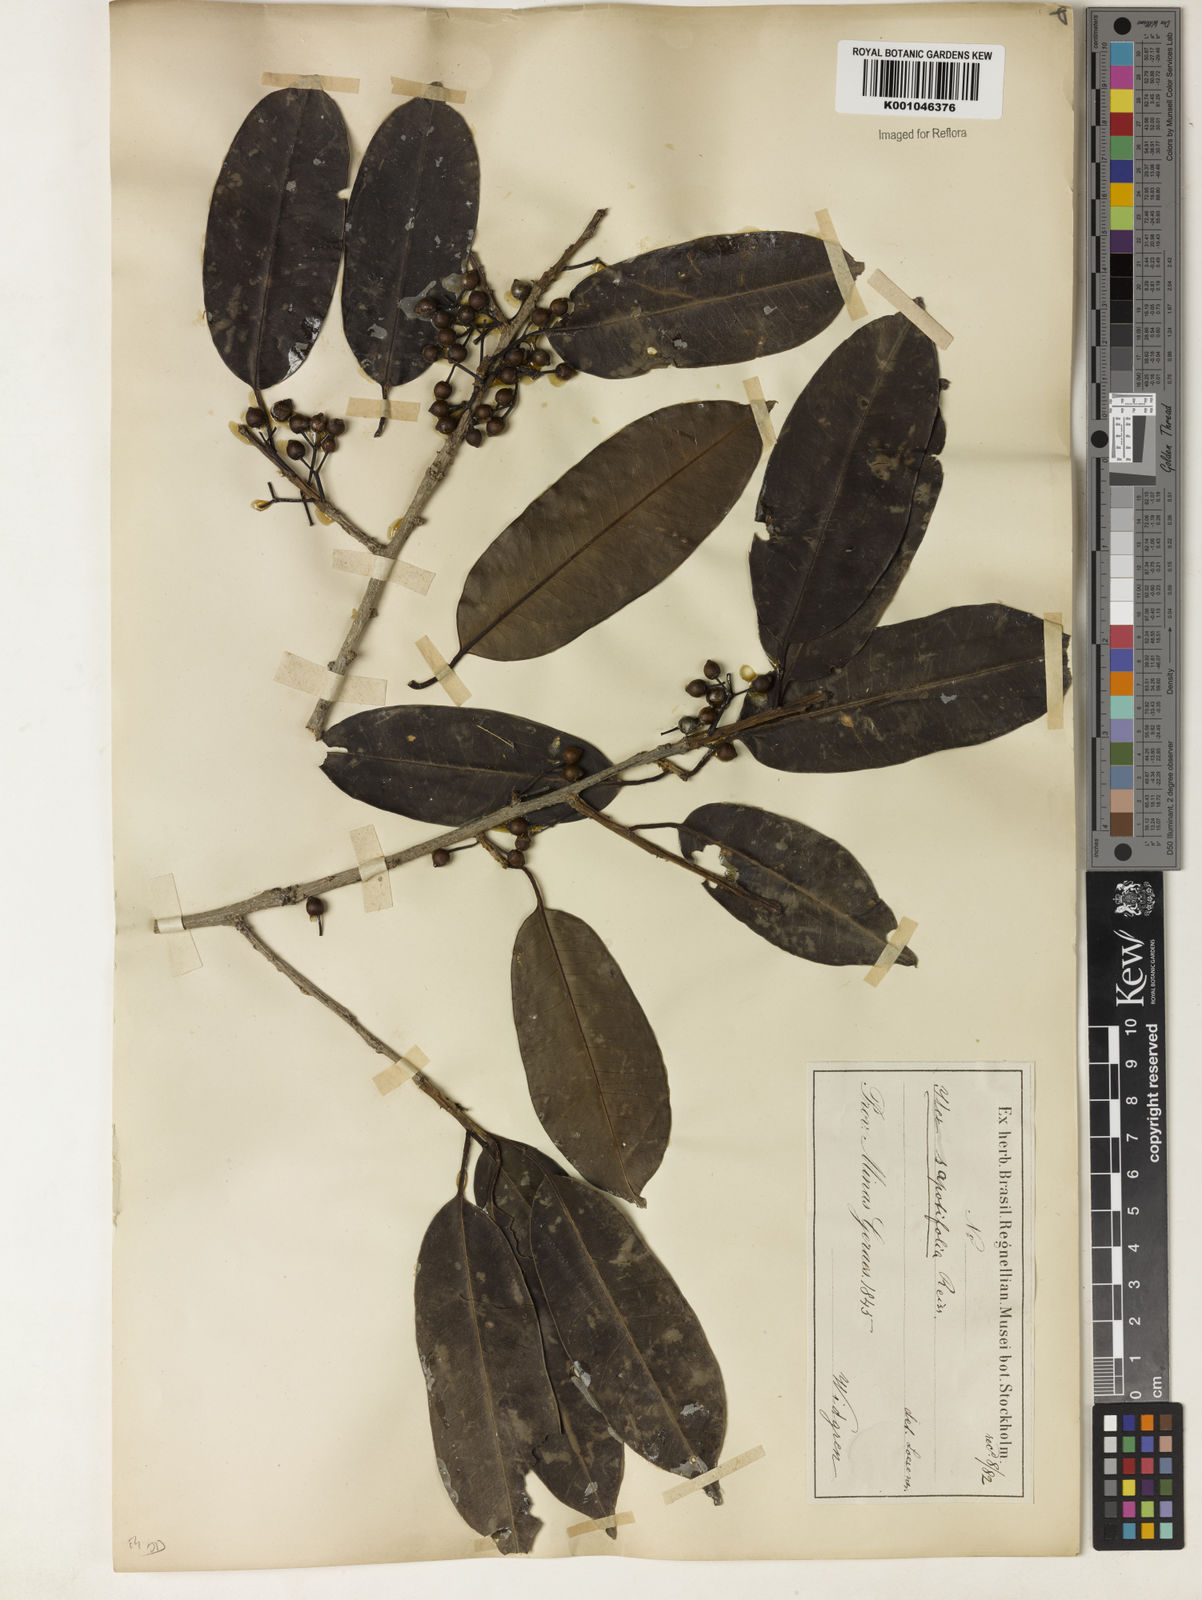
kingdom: Plantae
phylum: Tracheophyta
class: Magnoliopsida
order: Aquifoliales
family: Aquifoliaceae
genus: Ilex
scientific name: Ilex sapotifolia
